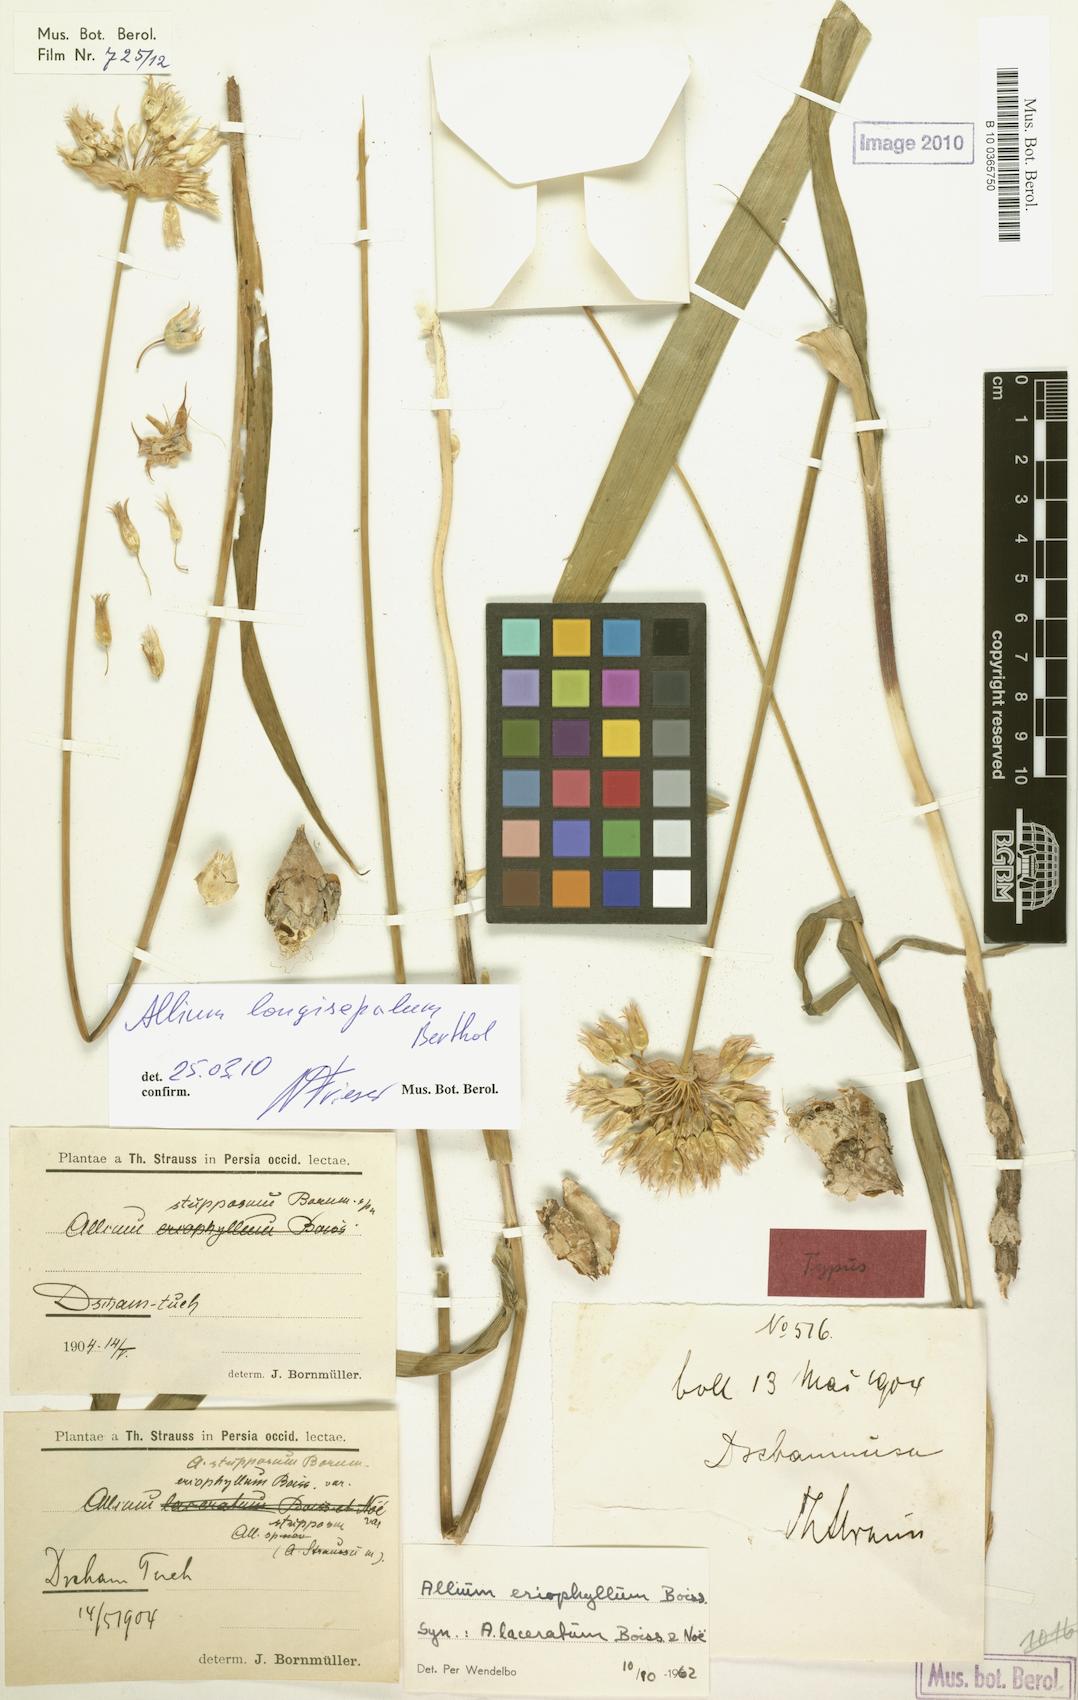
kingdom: Plantae
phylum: Tracheophyta
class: Liliopsida
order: Asparagales
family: Amaryllidaceae
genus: Allium
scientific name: Allium longisepalum
